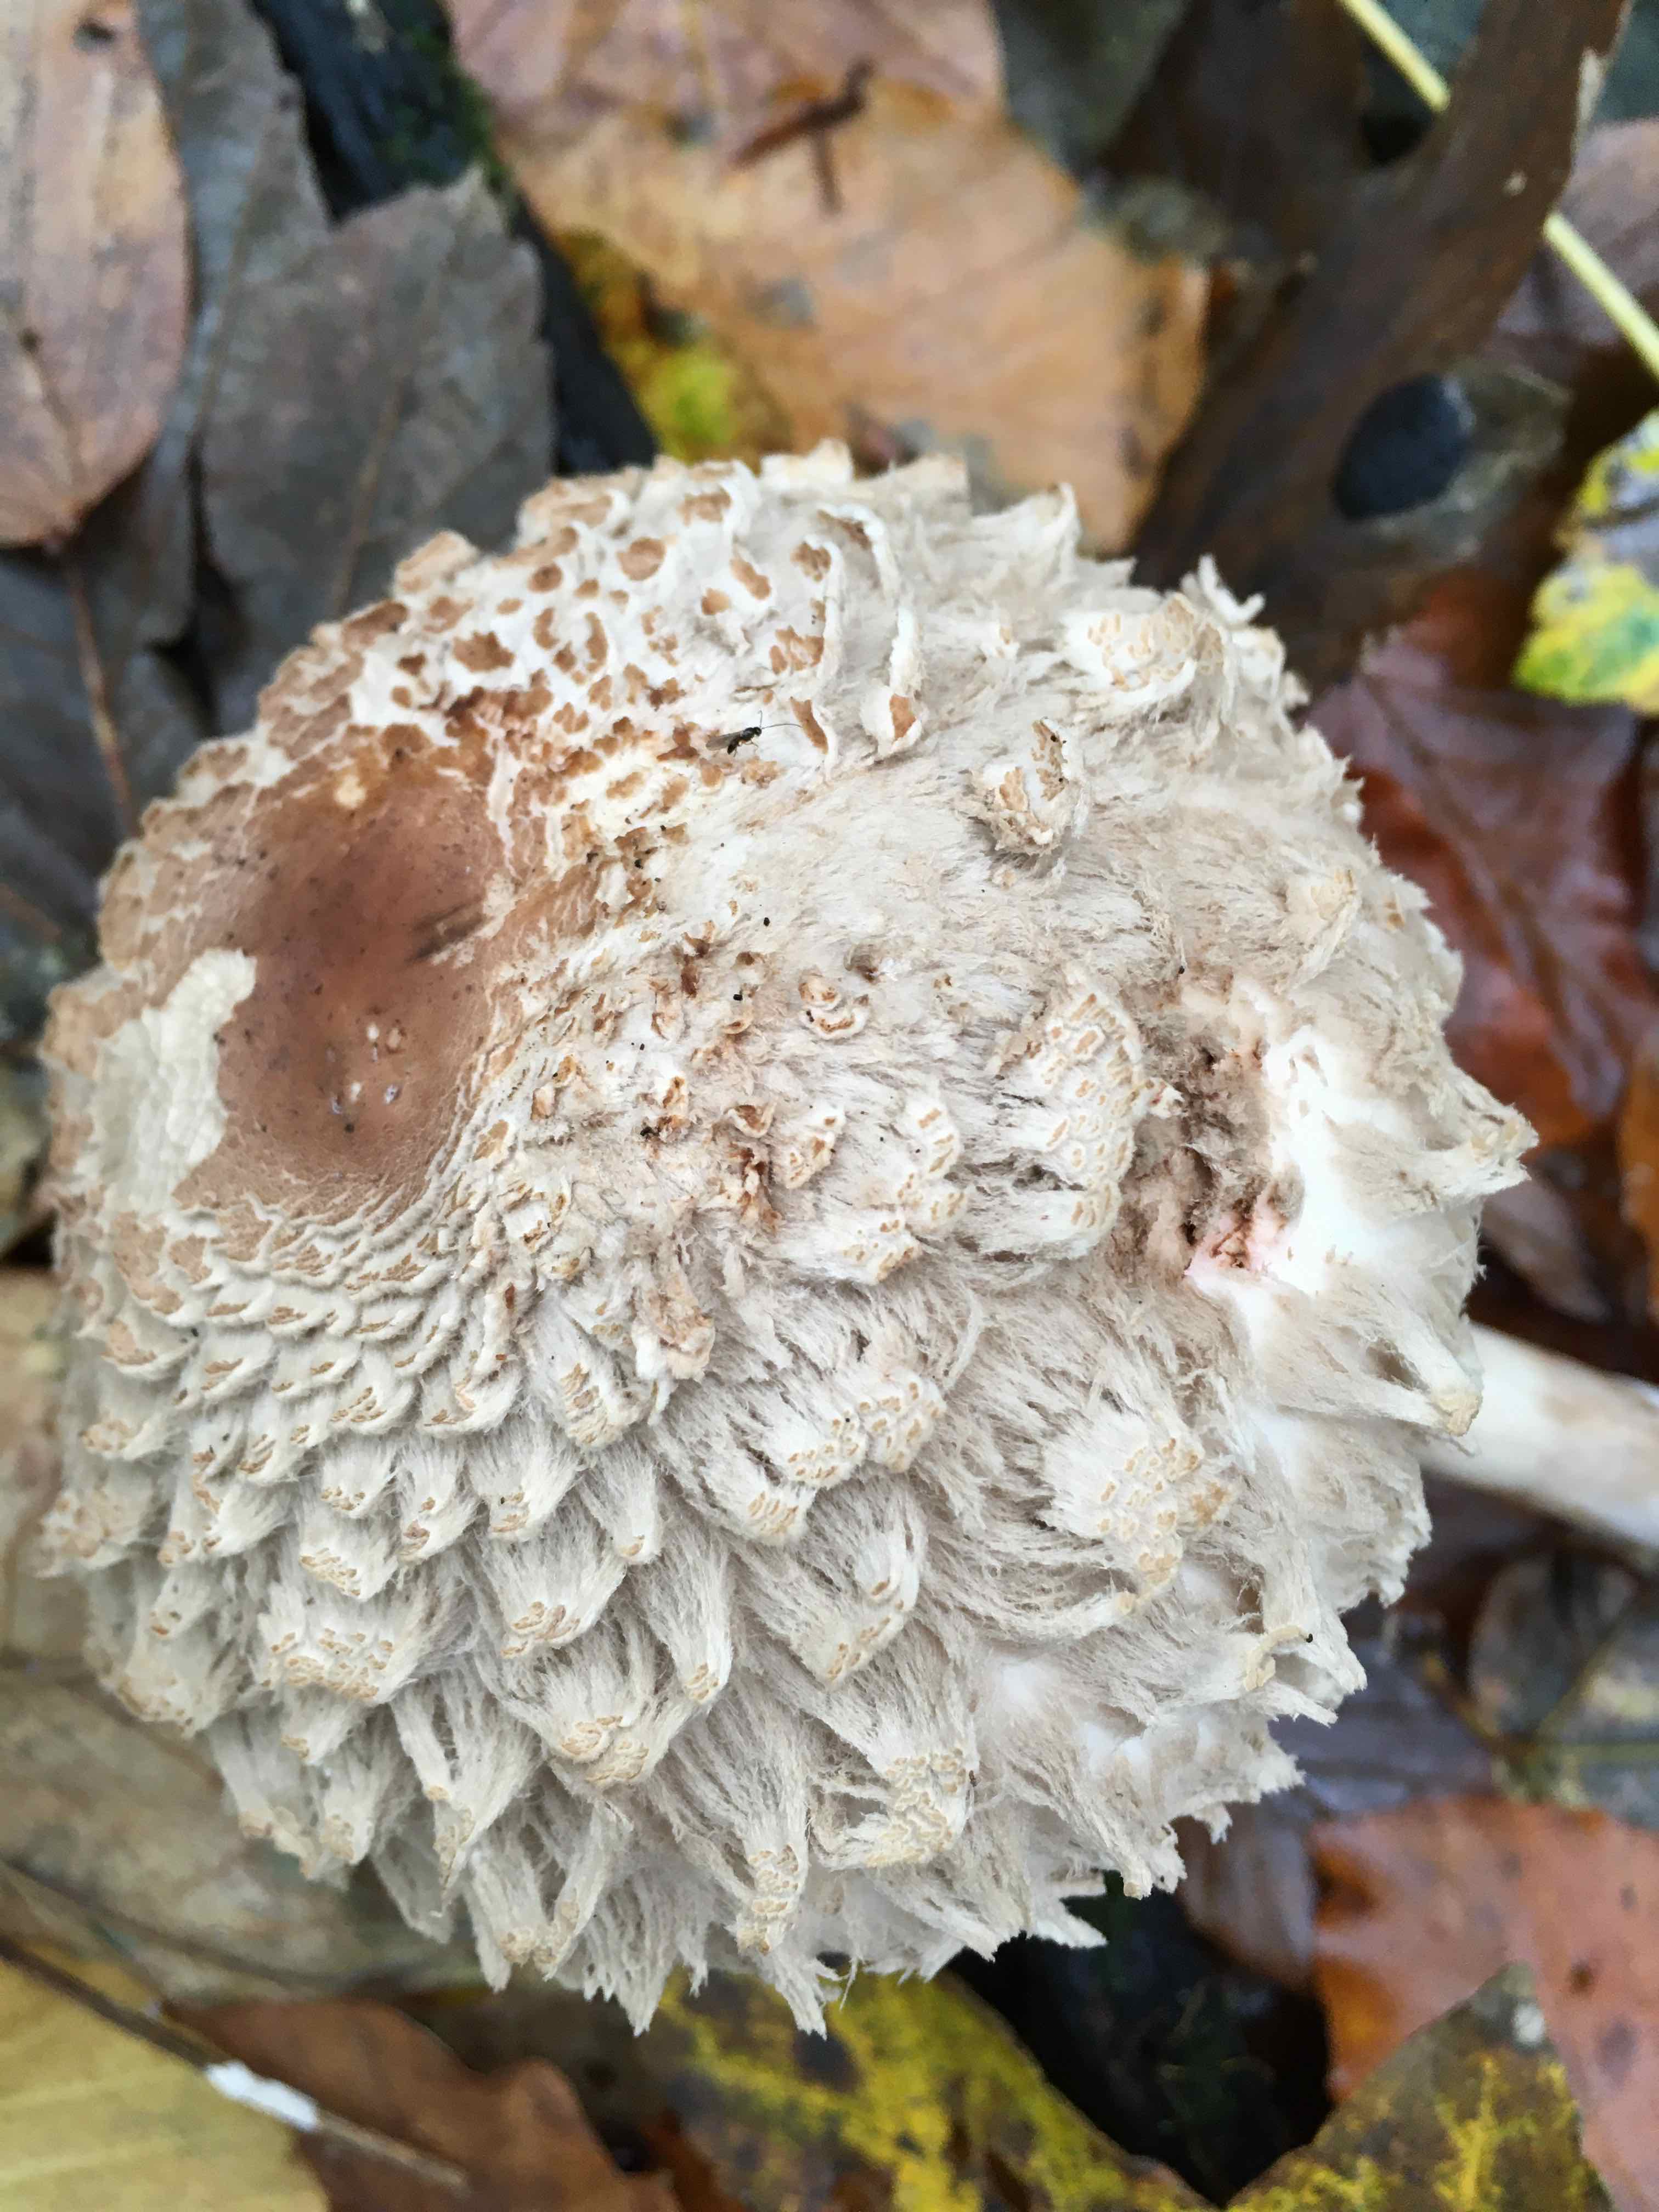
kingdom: Fungi
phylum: Basidiomycota
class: Agaricomycetes
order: Agaricales
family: Agaricaceae
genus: Chlorophyllum
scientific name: Chlorophyllum
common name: rabarberhat
